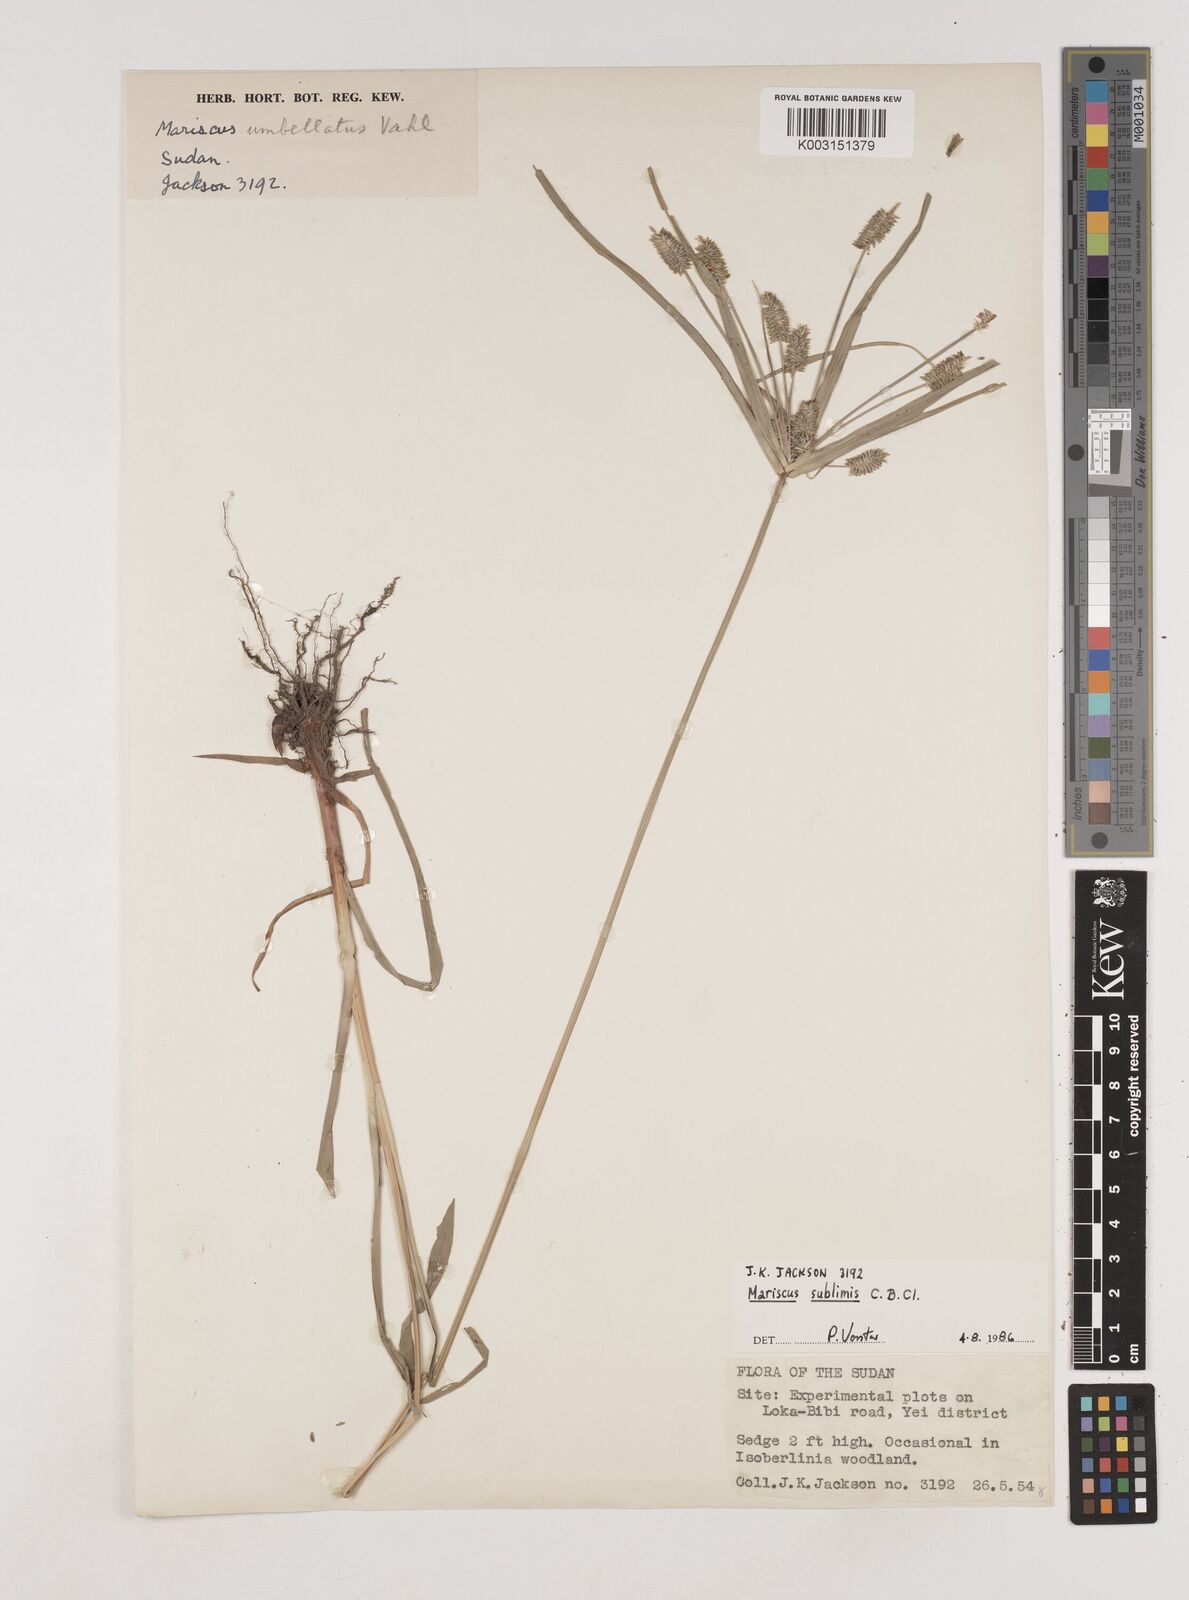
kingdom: Plantae
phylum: Tracheophyta
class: Liliopsida
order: Poales
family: Cyperaceae
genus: Cyperus
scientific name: Cyperus cyperoides
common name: Pacific island flat sedge
